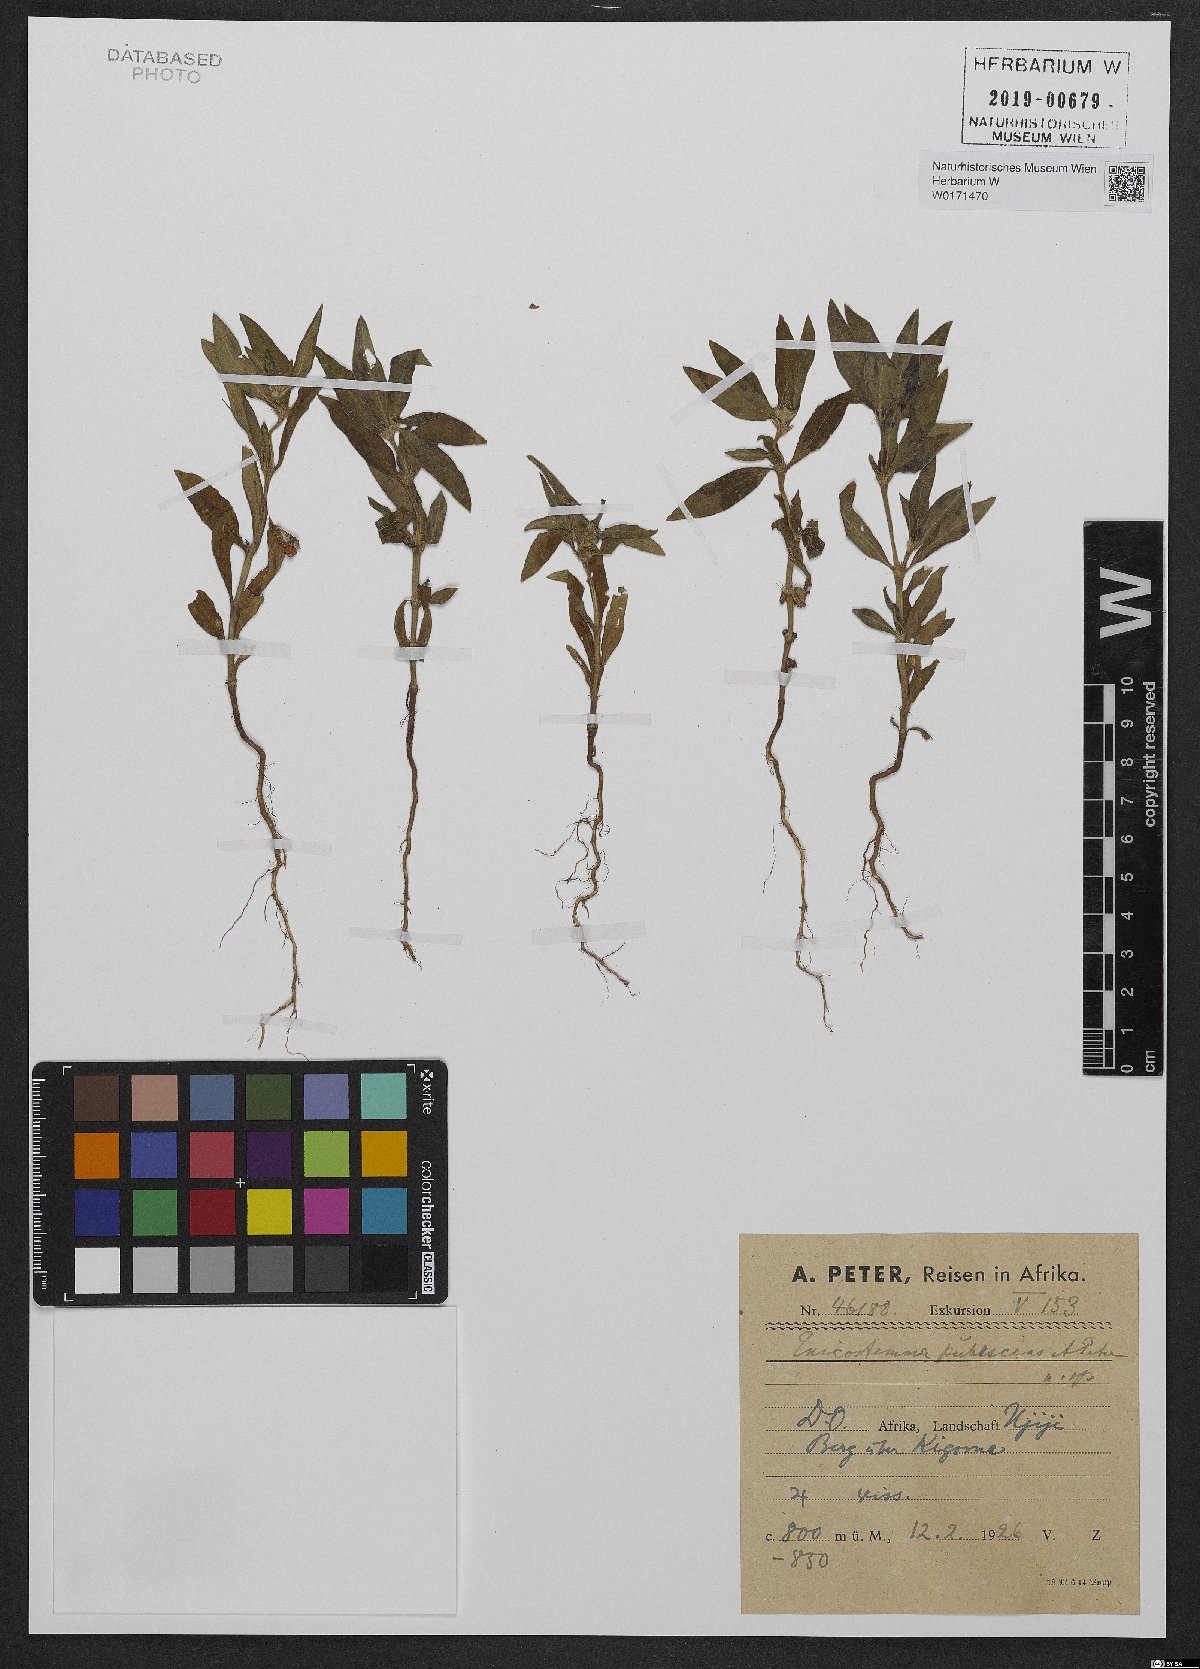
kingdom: Plantae
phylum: Tracheophyta
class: Magnoliopsida
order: Gentianales
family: Gentianaceae
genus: Enicostema
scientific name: Enicostema
